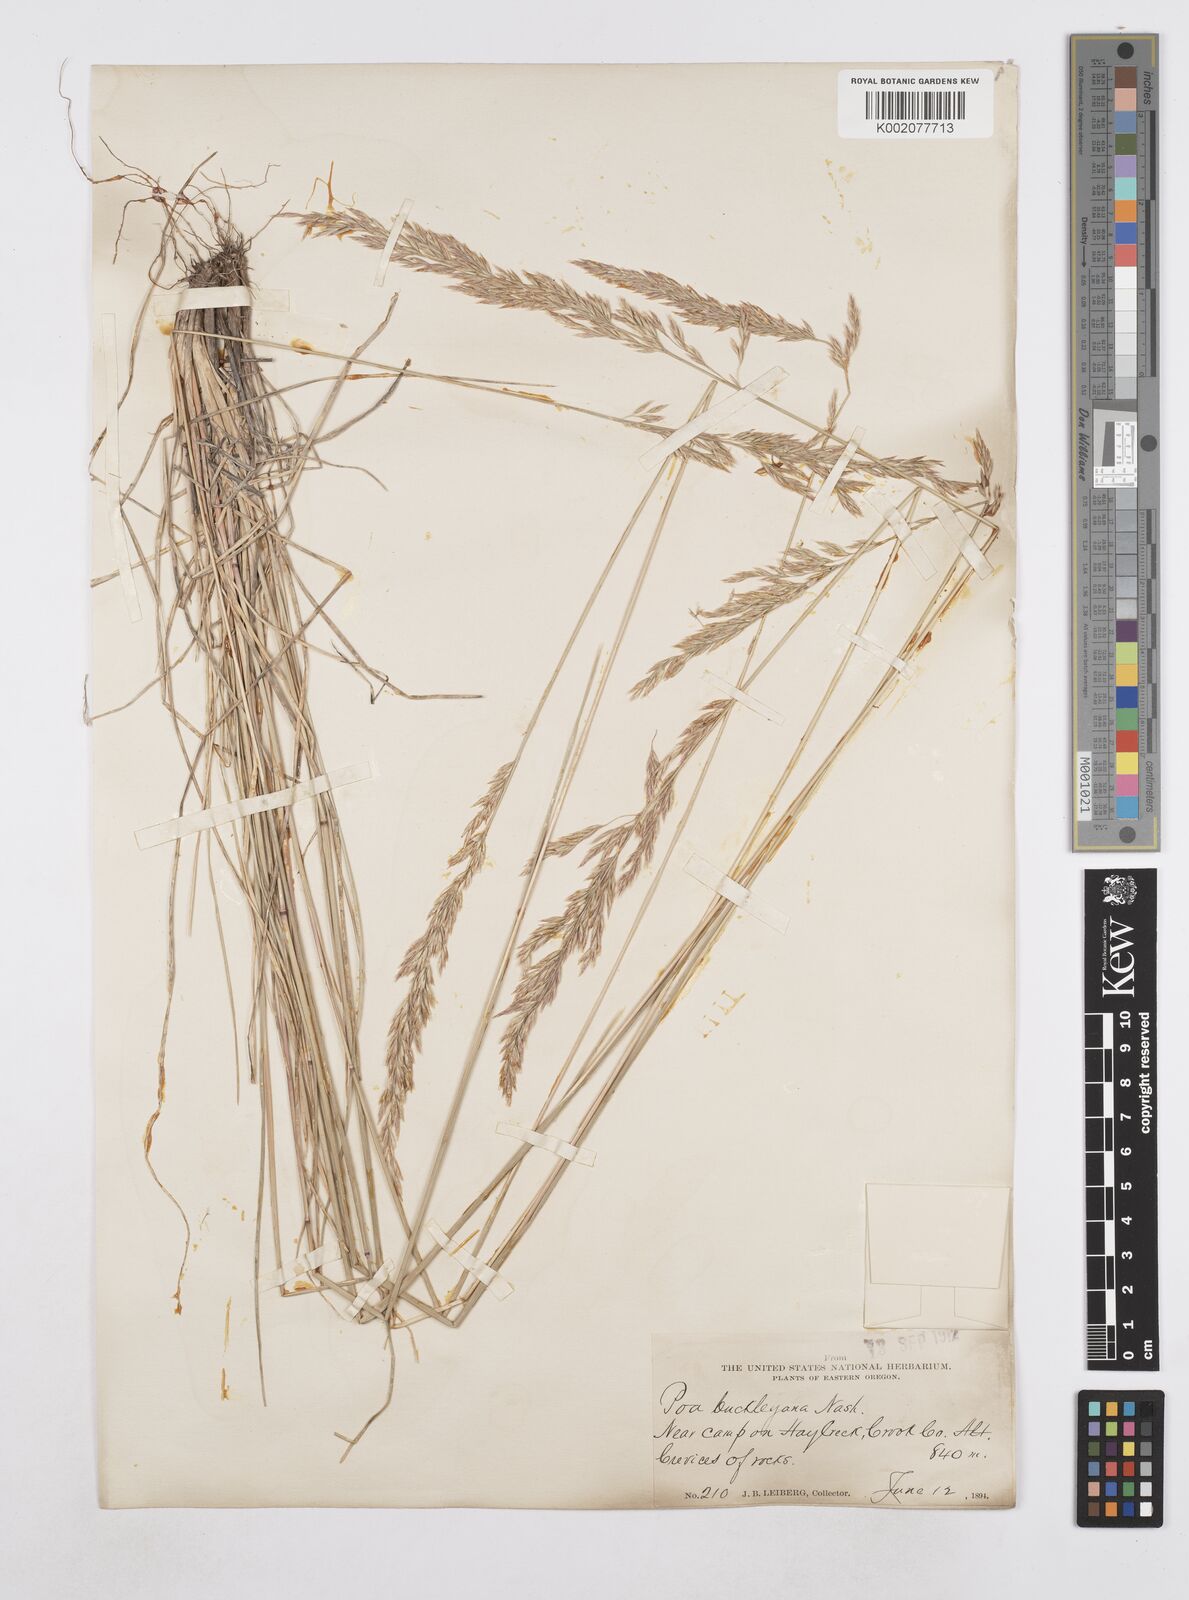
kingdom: Plantae
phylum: Tracheophyta
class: Liliopsida
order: Poales
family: Poaceae
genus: Poa
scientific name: Poa secunda
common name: Sandberg bluegrass
